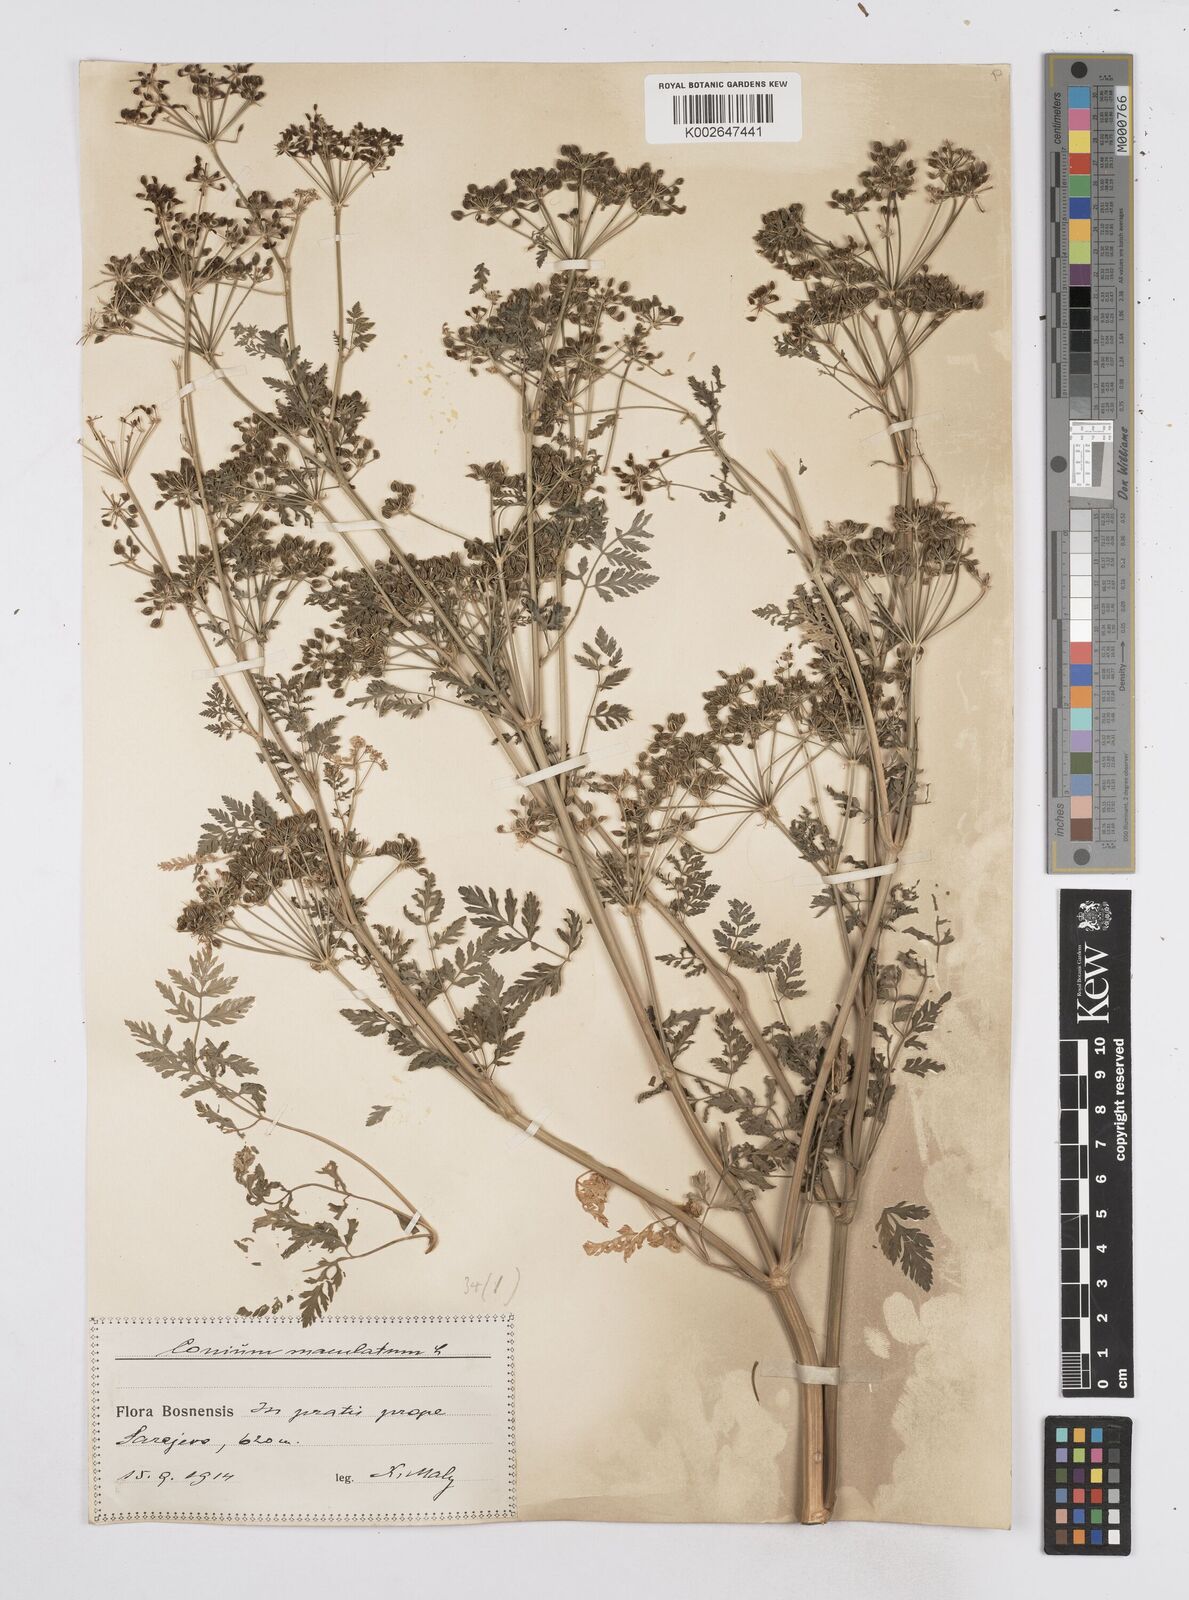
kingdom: Plantae
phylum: Tracheophyta
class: Magnoliopsida
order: Apiales
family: Apiaceae
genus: Conium
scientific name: Conium maculatum
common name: Hemlock
